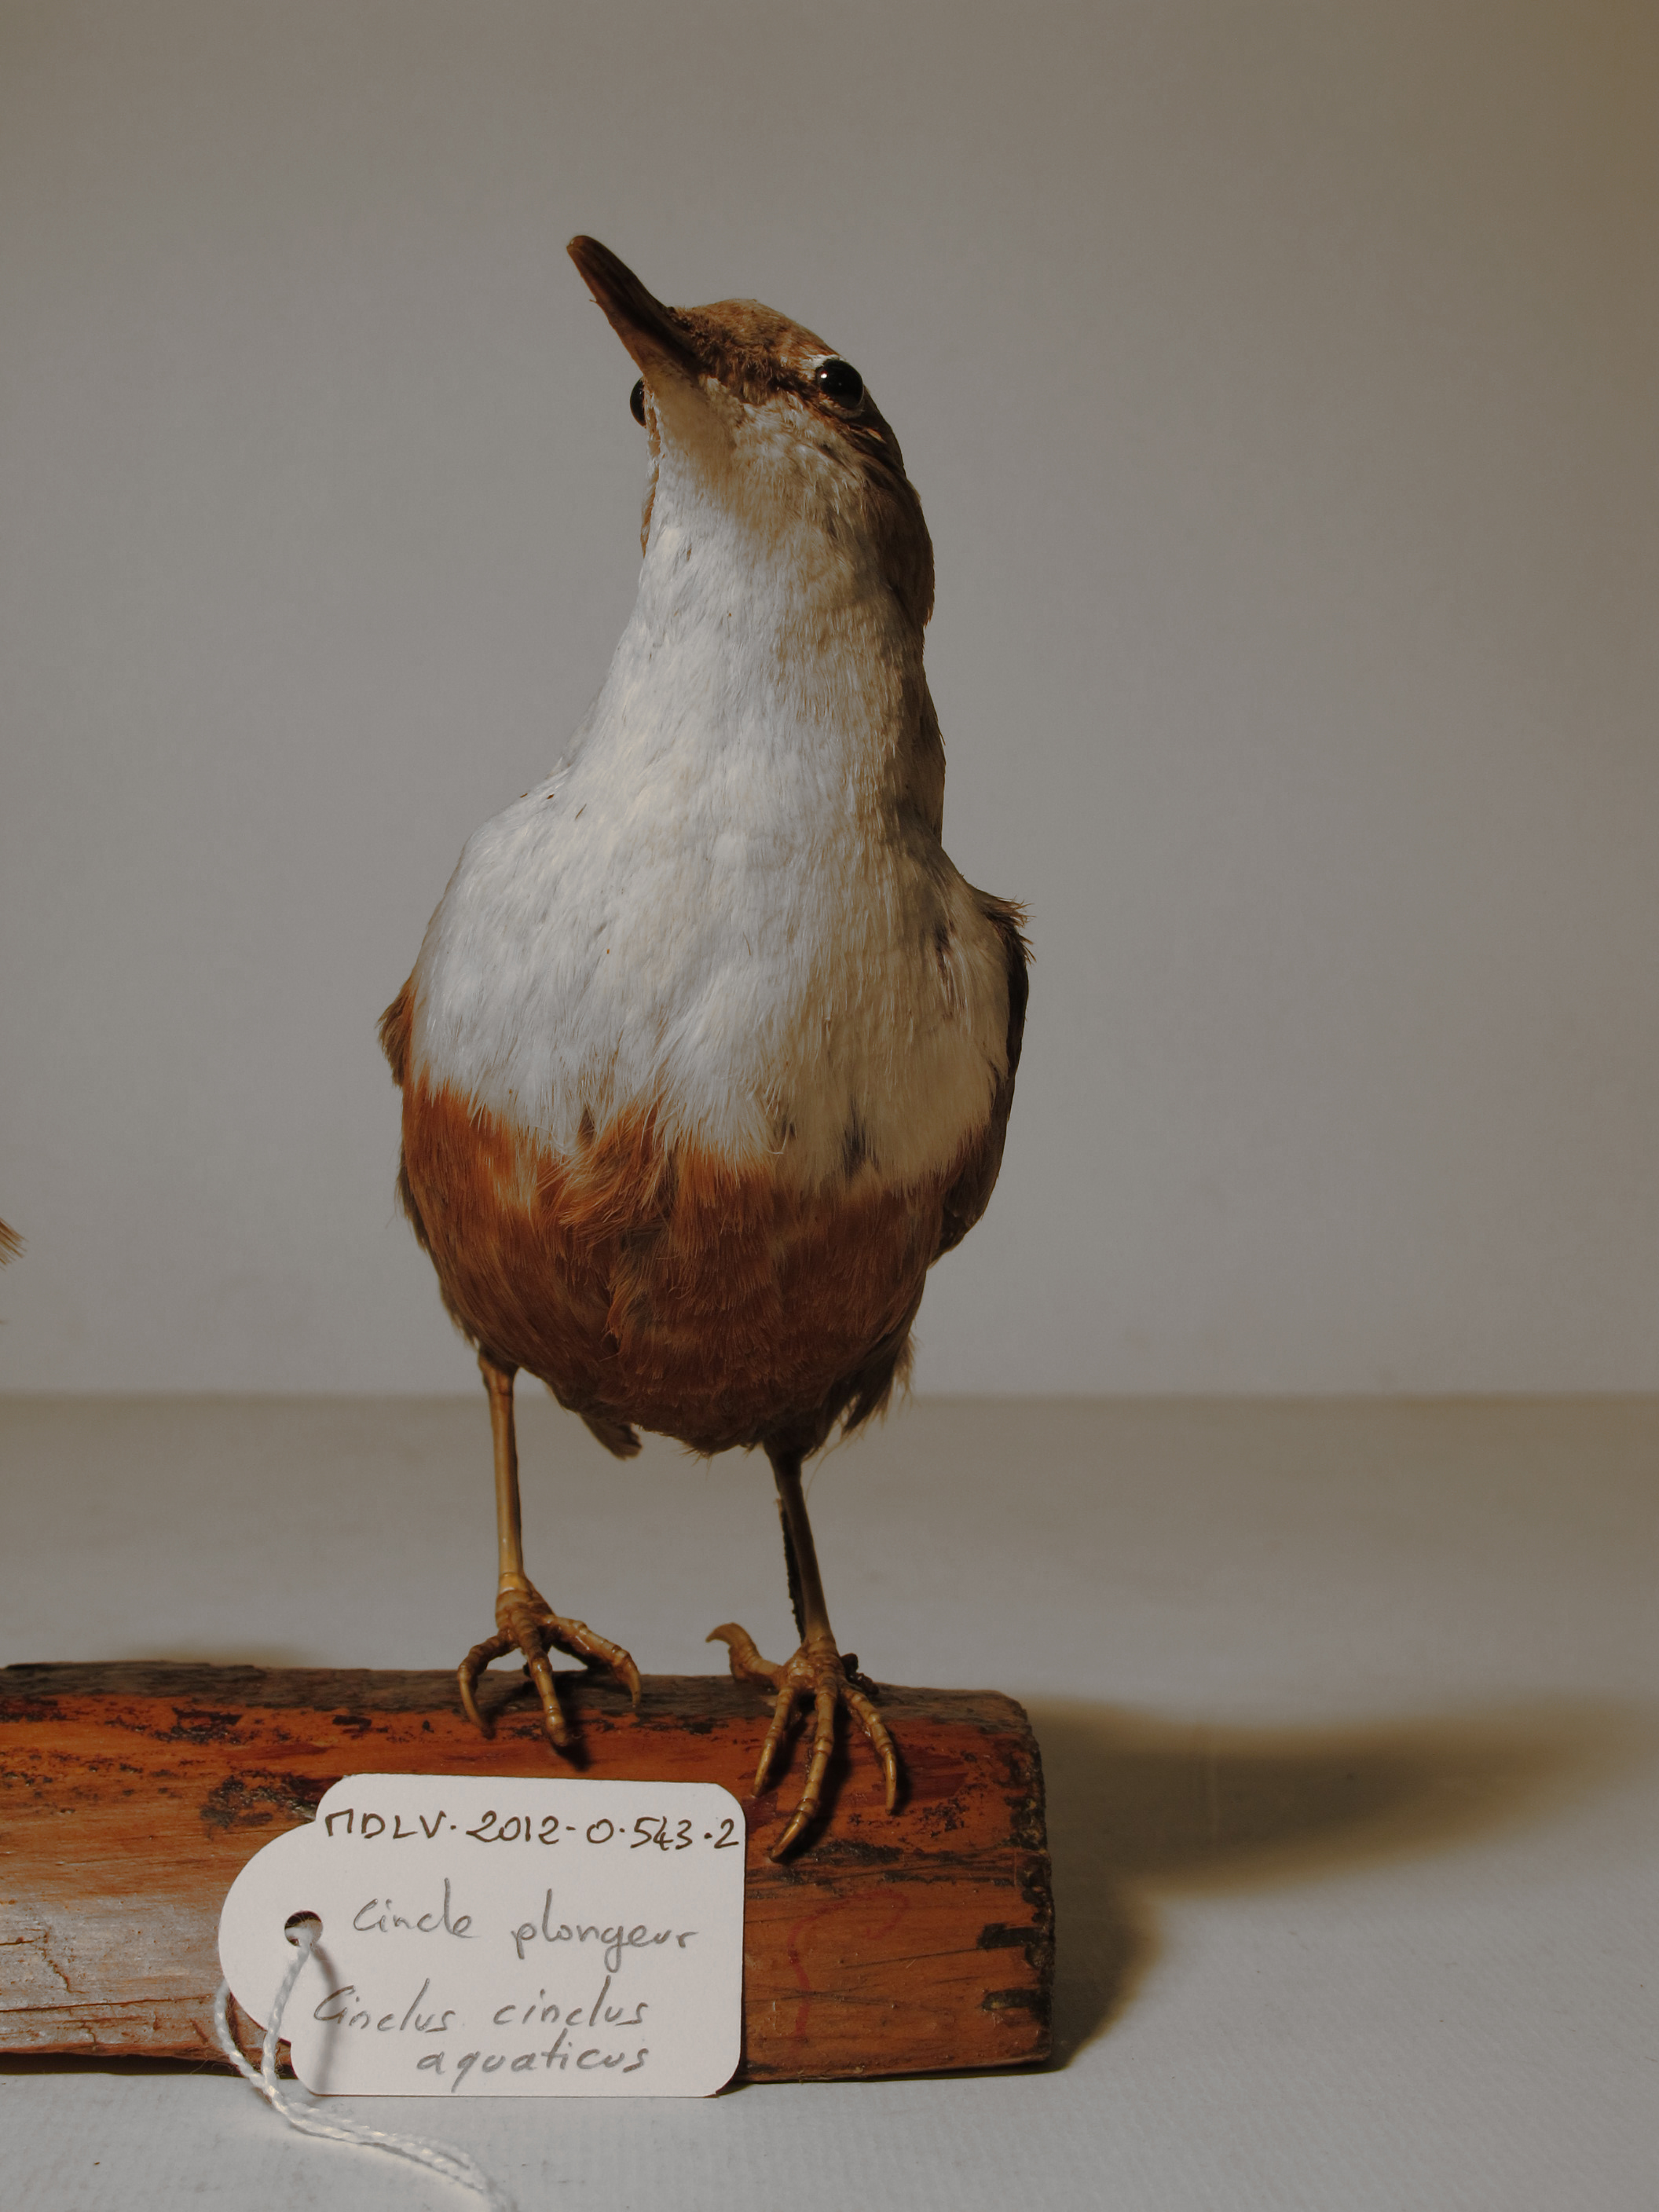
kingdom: Animalia
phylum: Chordata
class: Aves
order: Passeriformes
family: Cinclidae
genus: Cinclus
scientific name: Cinclus cinclus
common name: White-throated Dipper
